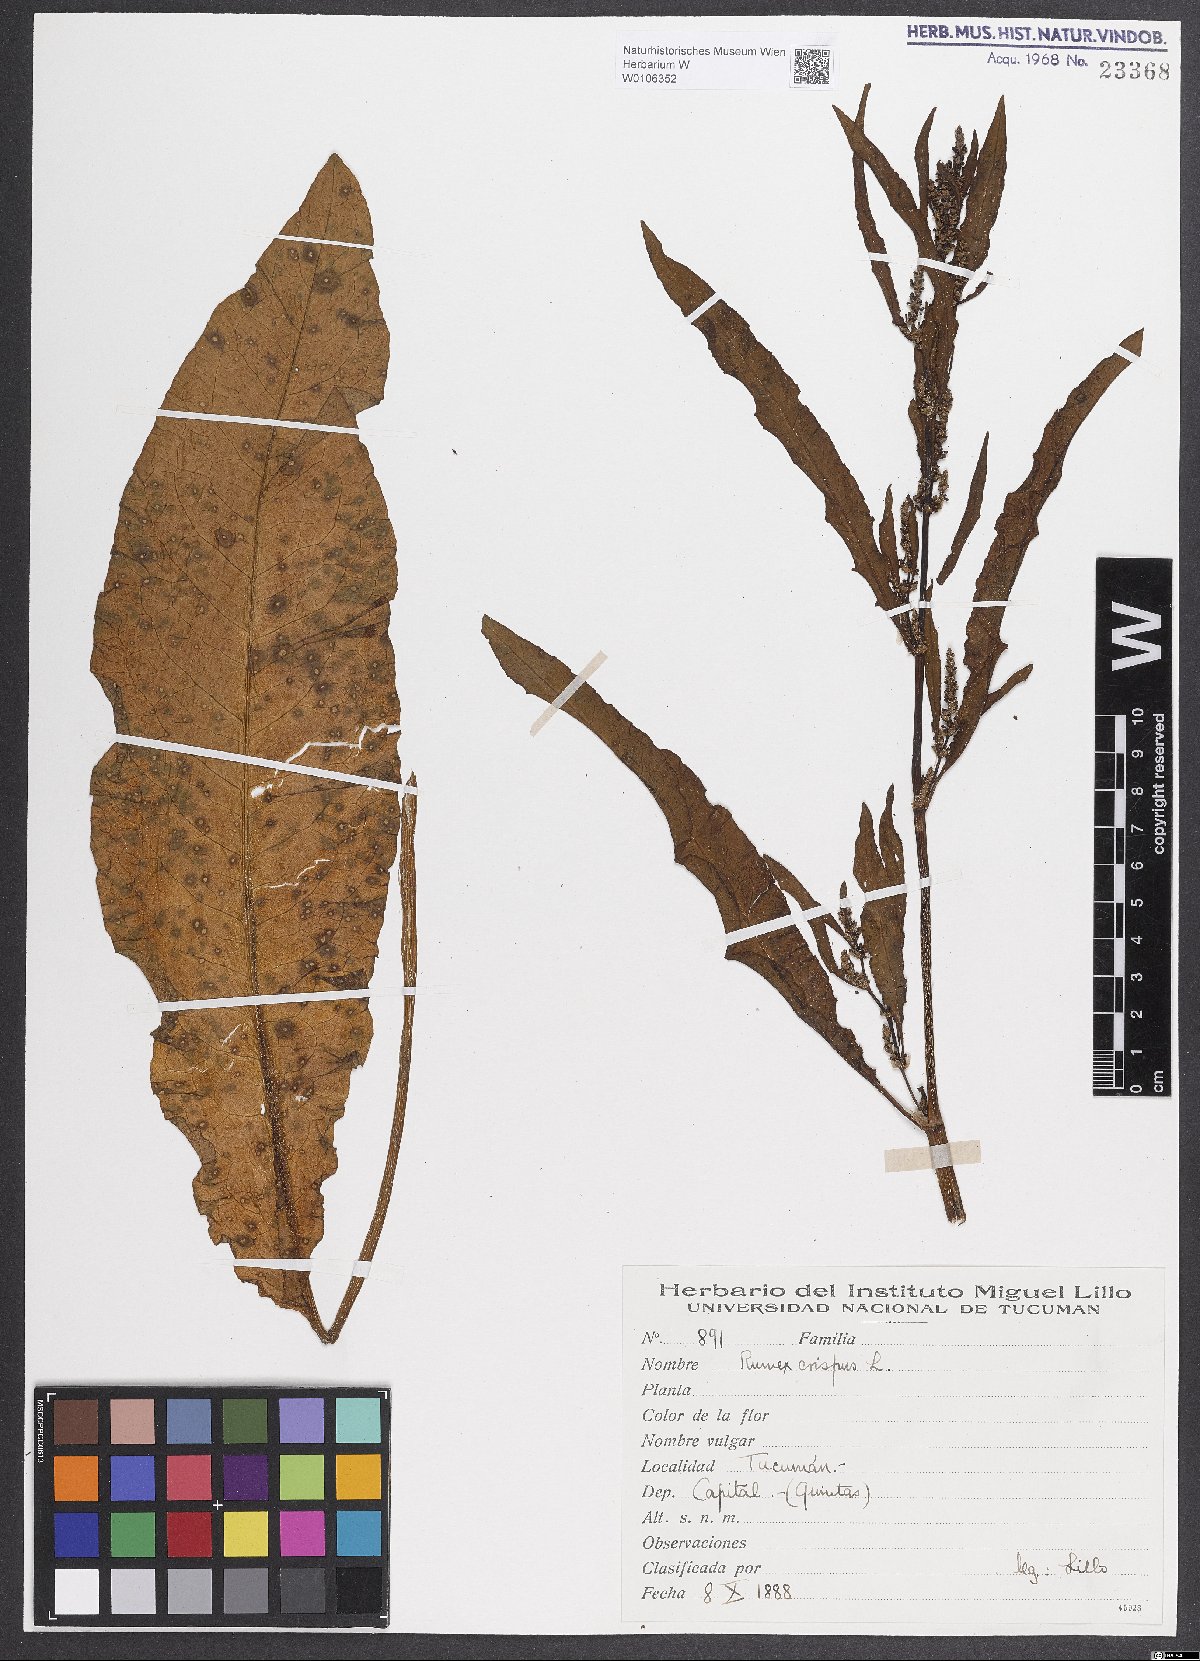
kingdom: Plantae
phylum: Tracheophyta
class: Magnoliopsida
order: Caryophyllales
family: Polygonaceae
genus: Rumex
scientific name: Rumex crispus
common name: Curled dock
